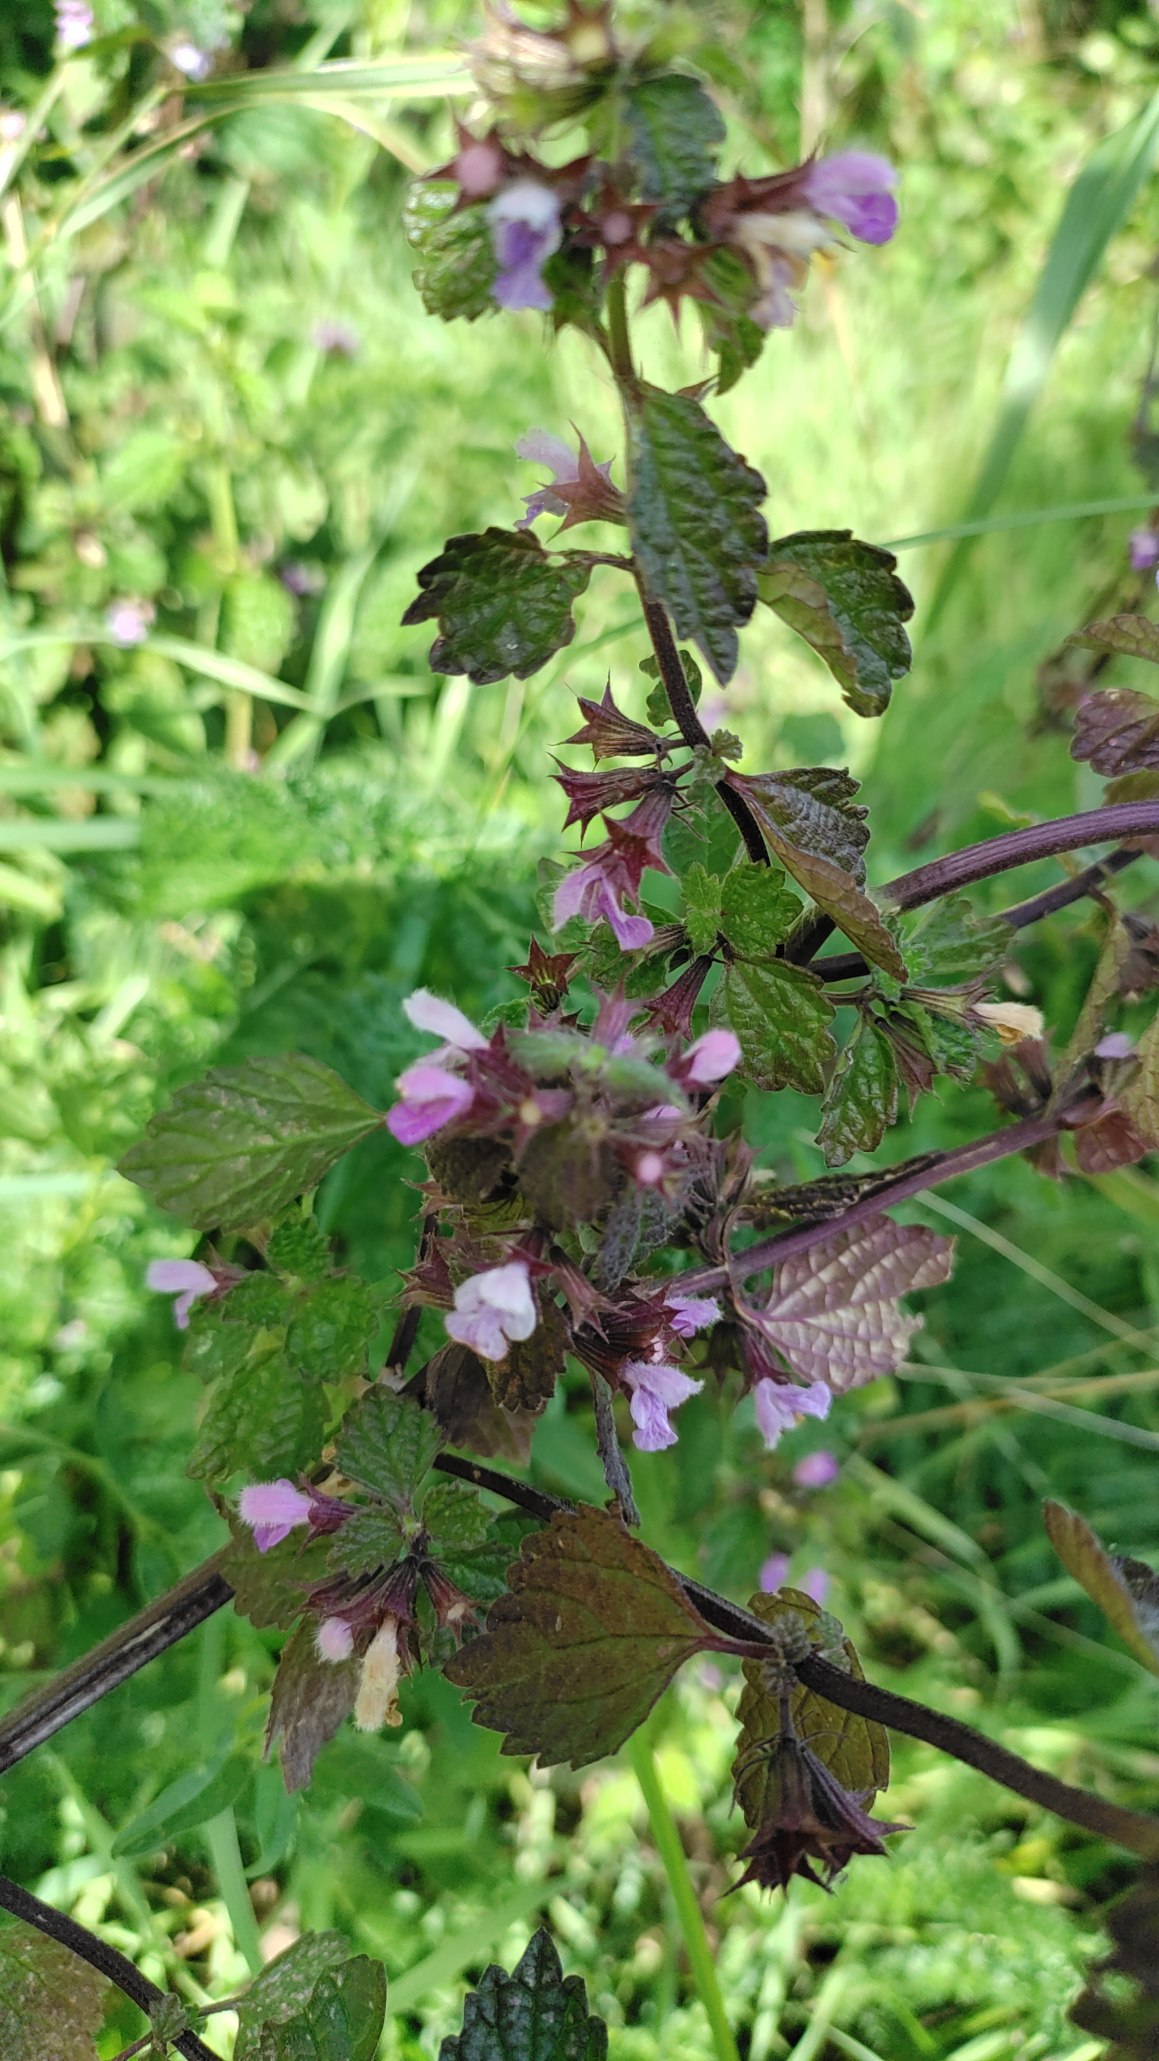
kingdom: Plantae
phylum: Tracheophyta
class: Magnoliopsida
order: Lamiales
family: Lamiaceae
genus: Ballota
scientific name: Ballota nigra
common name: Tandbæger
